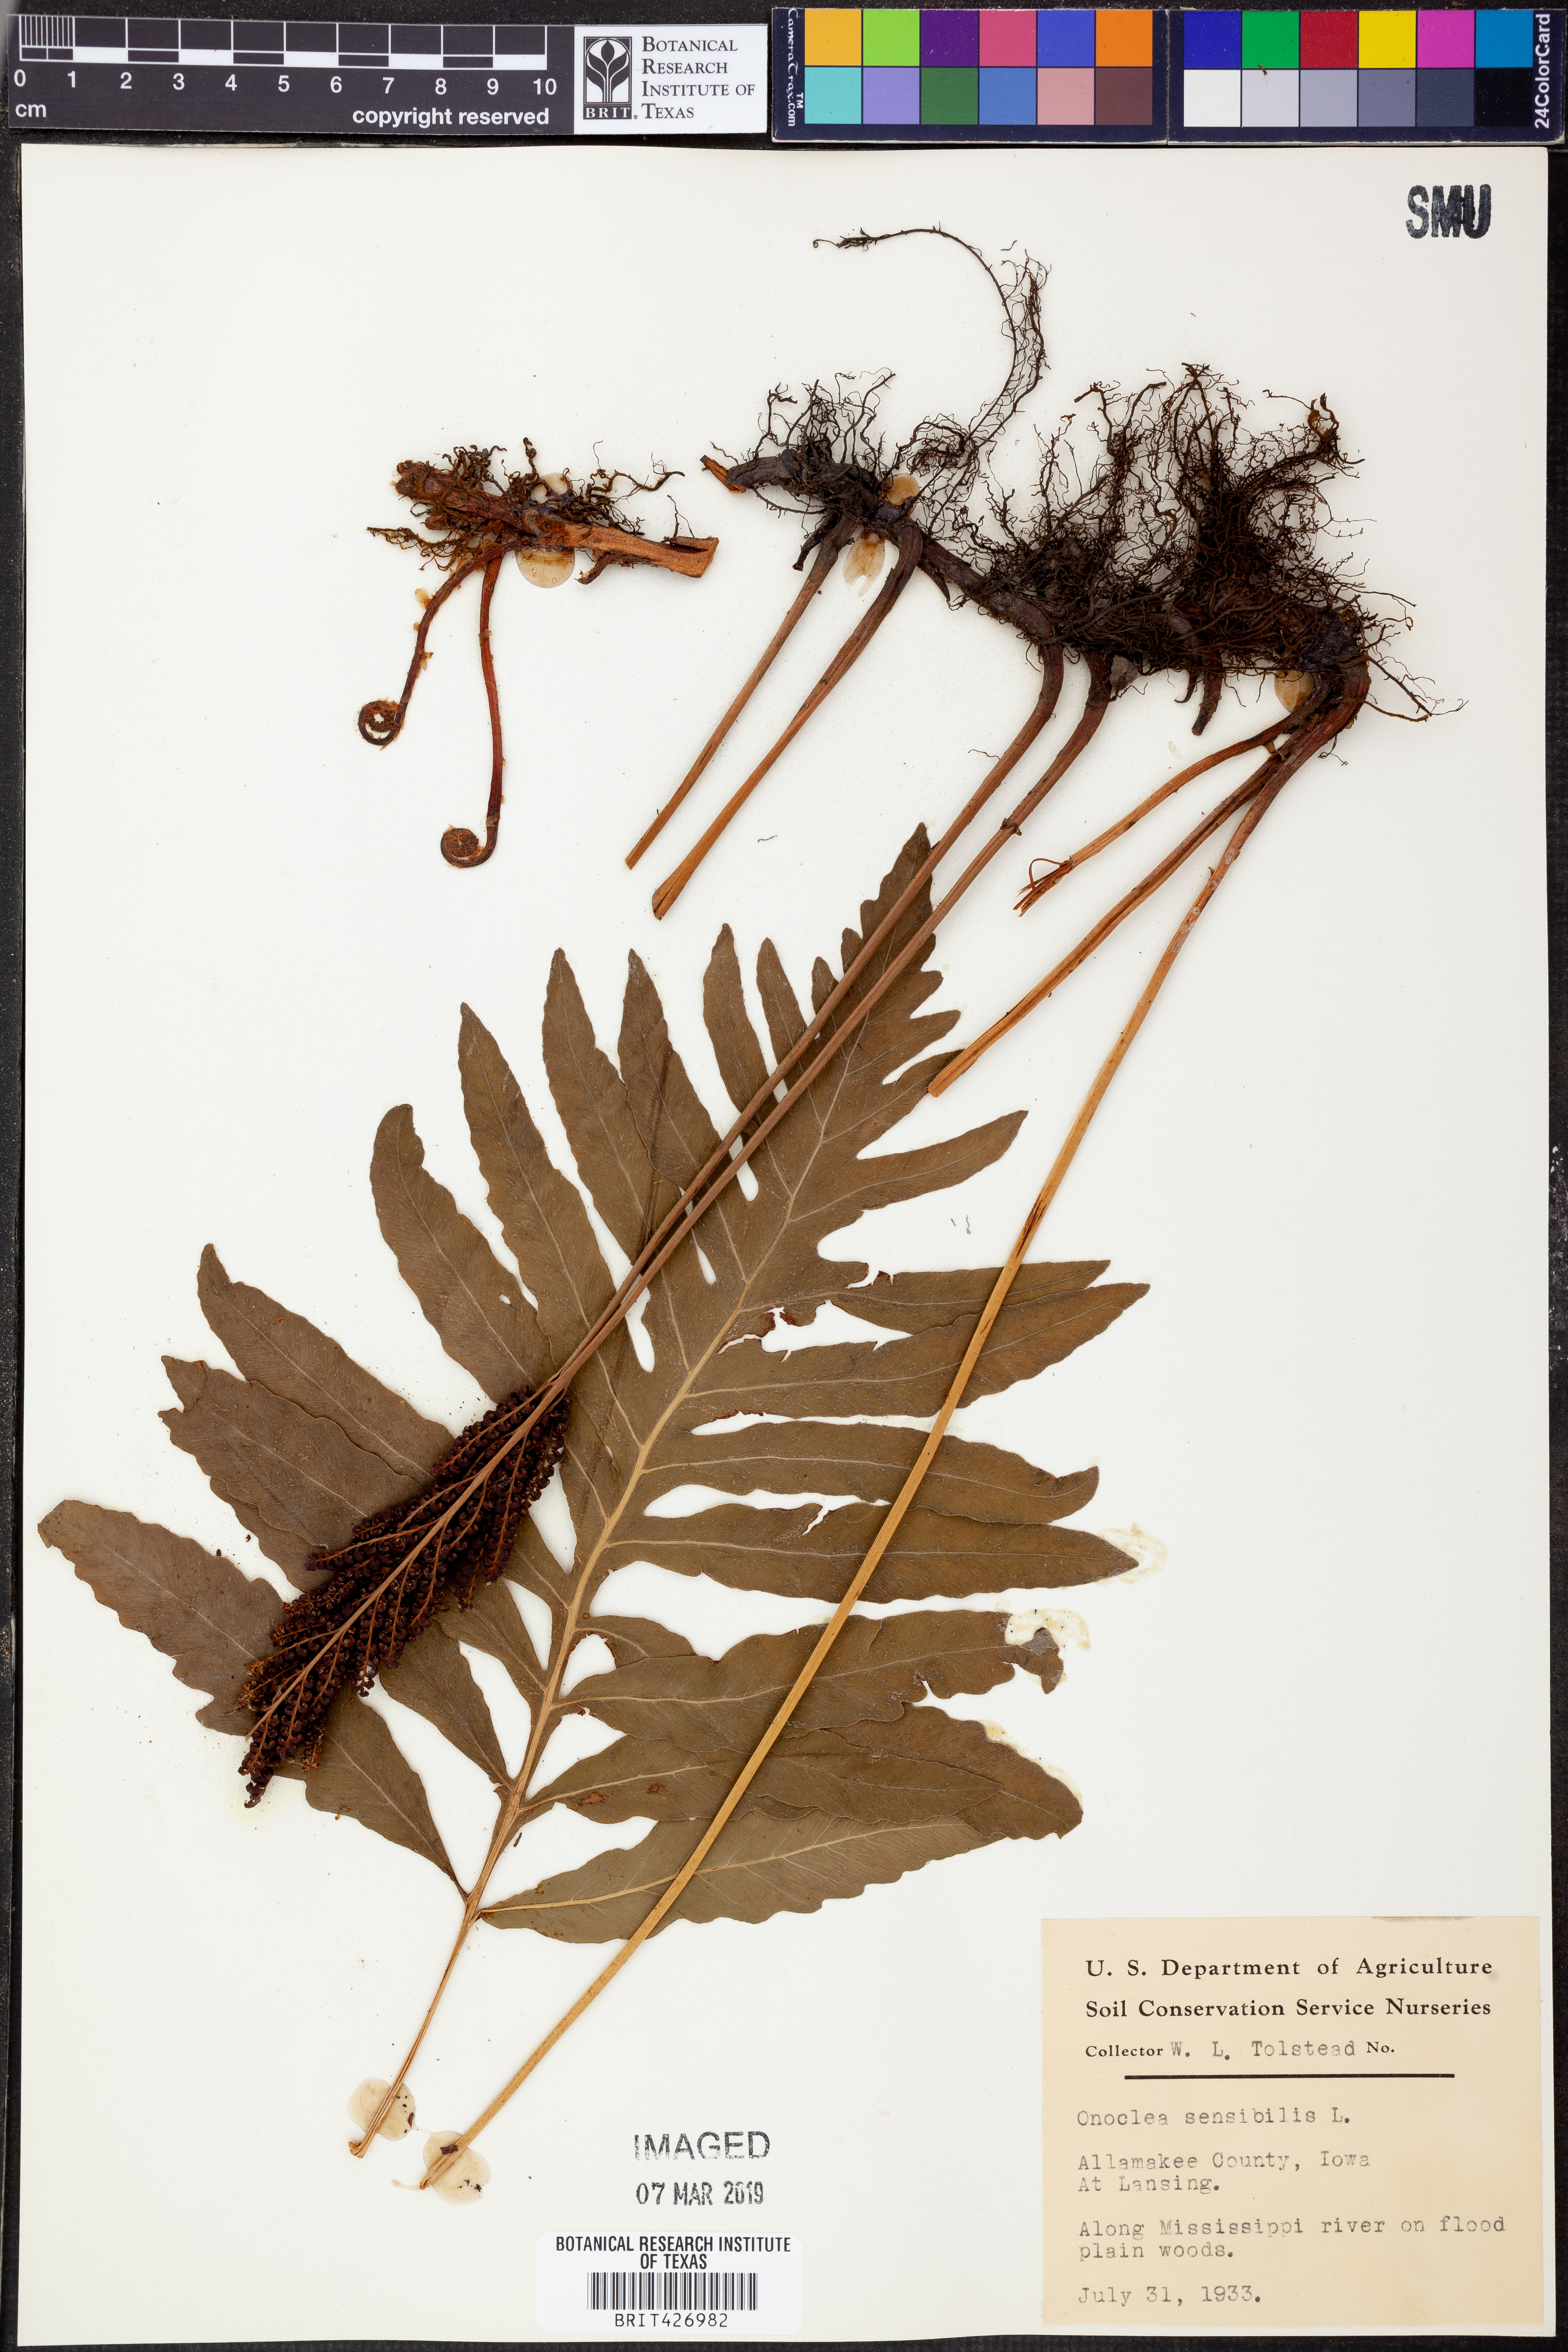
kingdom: Plantae
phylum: Tracheophyta
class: Polypodiopsida
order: Polypodiales
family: Onocleaceae
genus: Onoclea
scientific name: Onoclea sensibilis
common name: Sensitive fern
